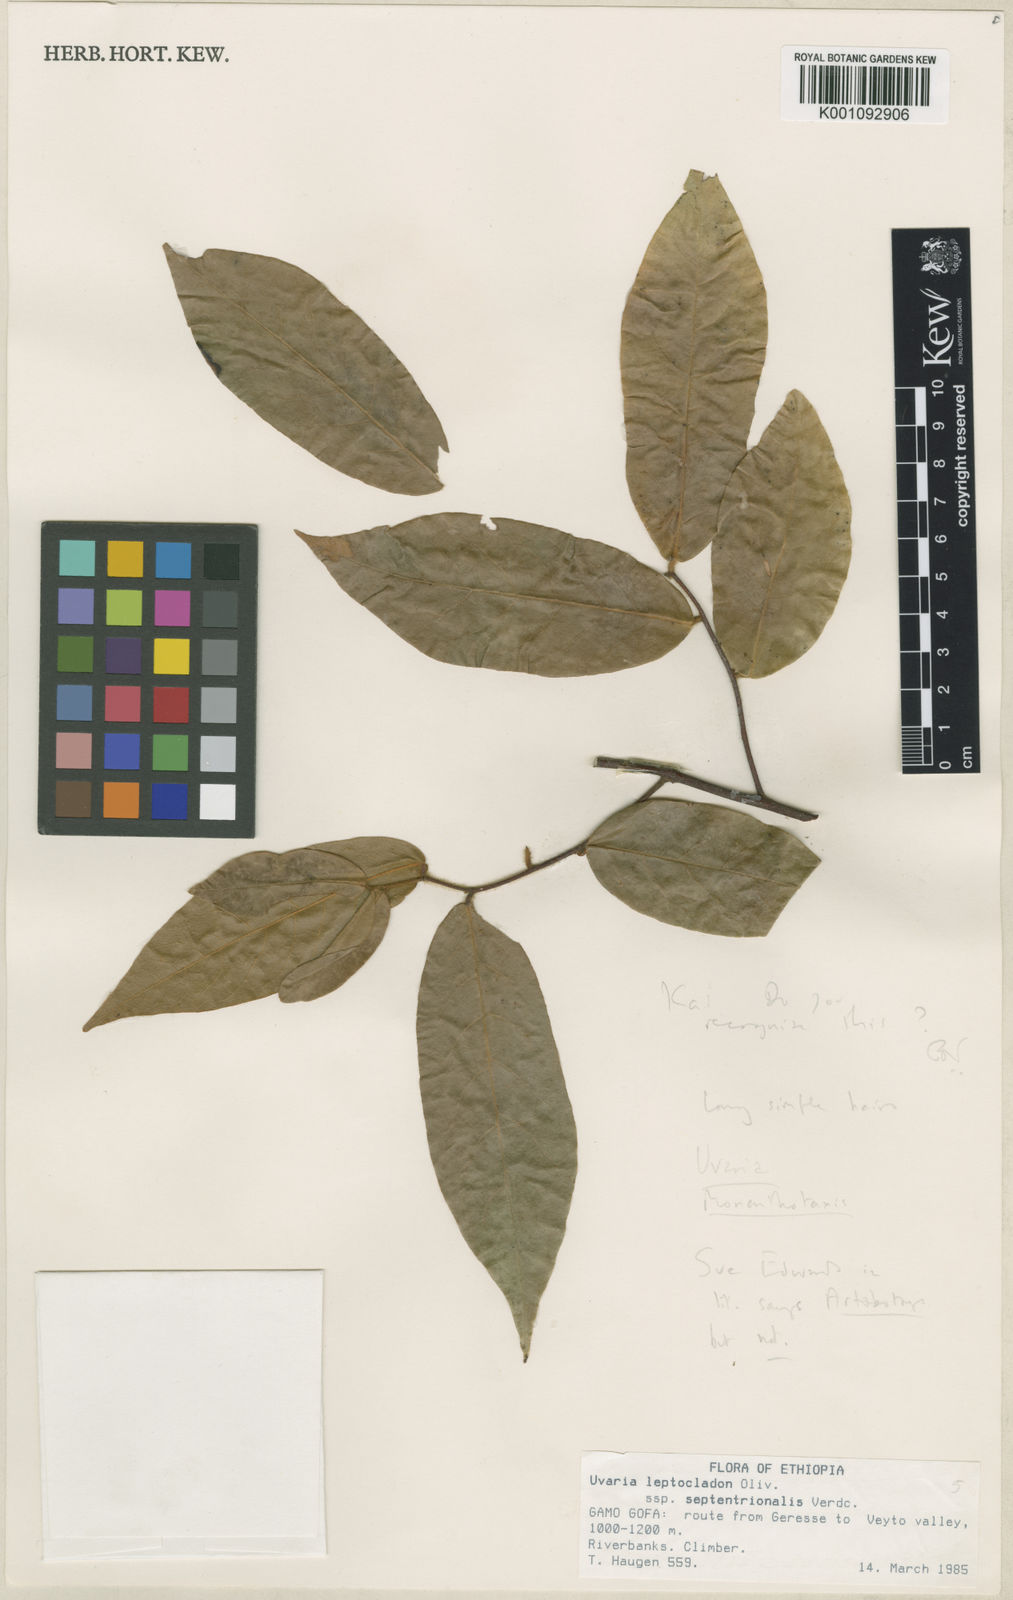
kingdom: Plantae
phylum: Tracheophyta
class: Magnoliopsida
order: Magnoliales
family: Annonaceae
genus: Uvaria
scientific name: Uvaria leptocladon
